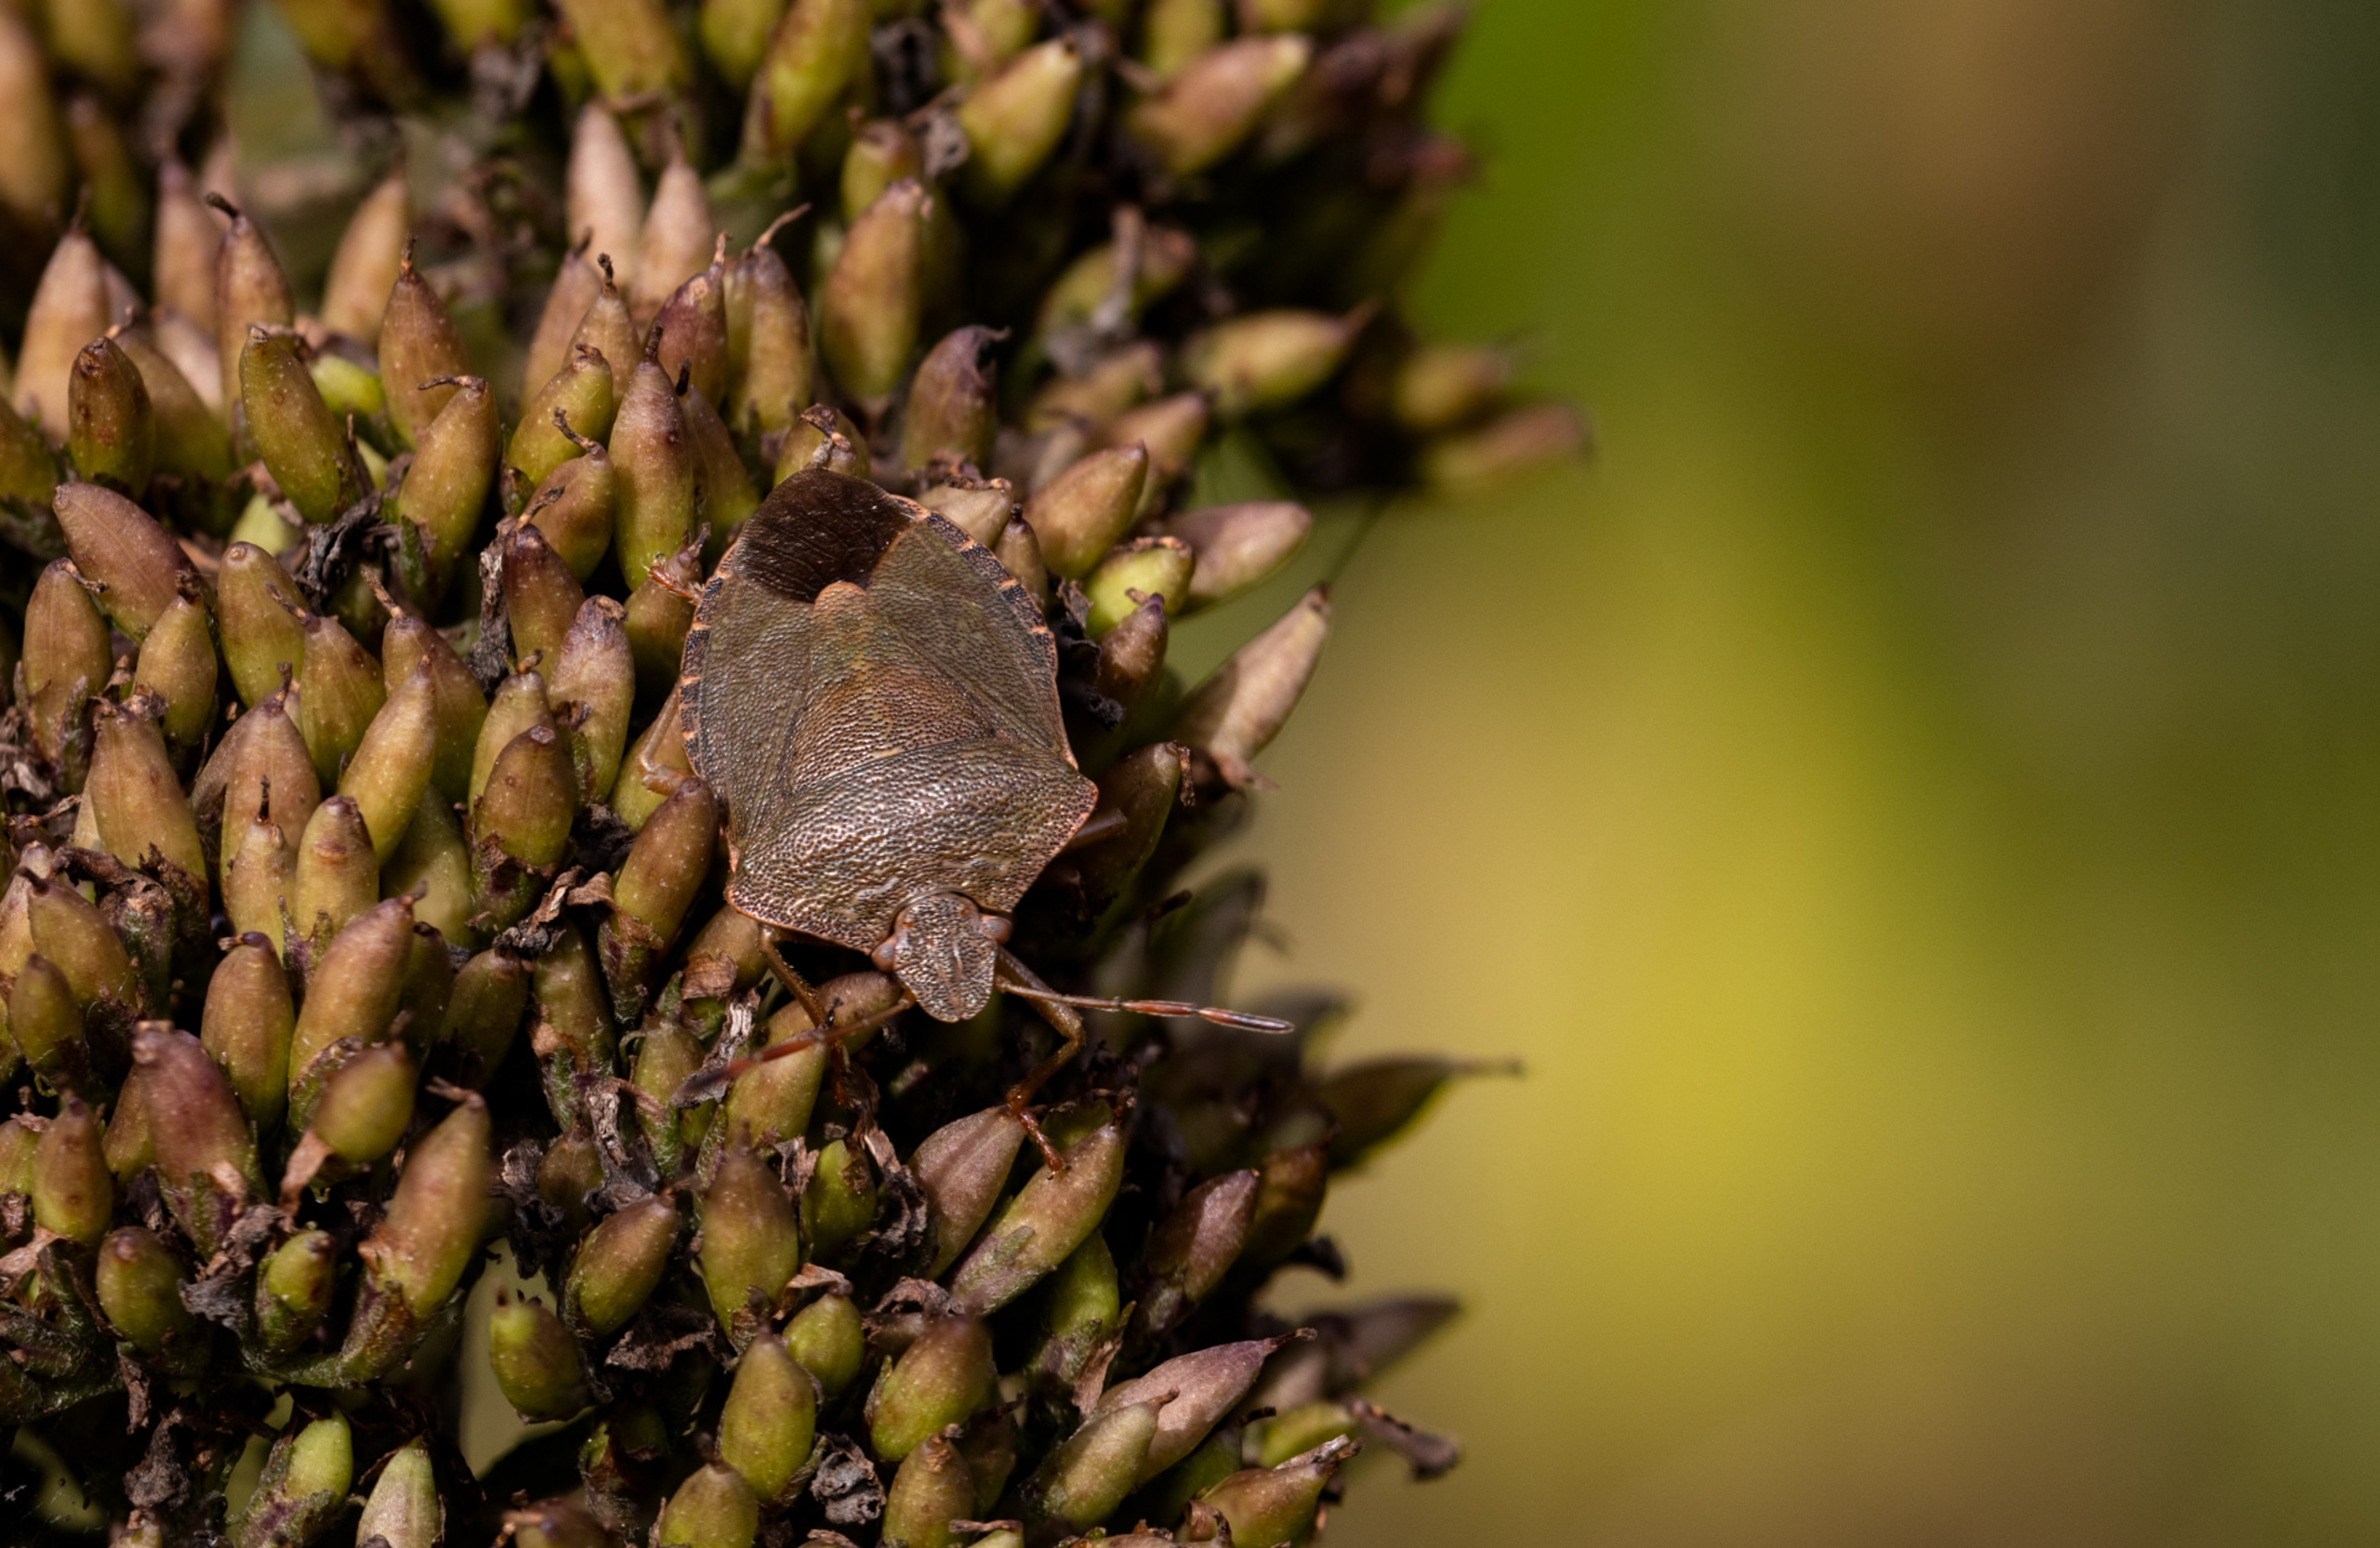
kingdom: Animalia
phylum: Arthropoda
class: Insecta
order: Hemiptera
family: Pentatomidae
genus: Palomena
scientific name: Palomena prasina
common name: Grøn bredtæge
